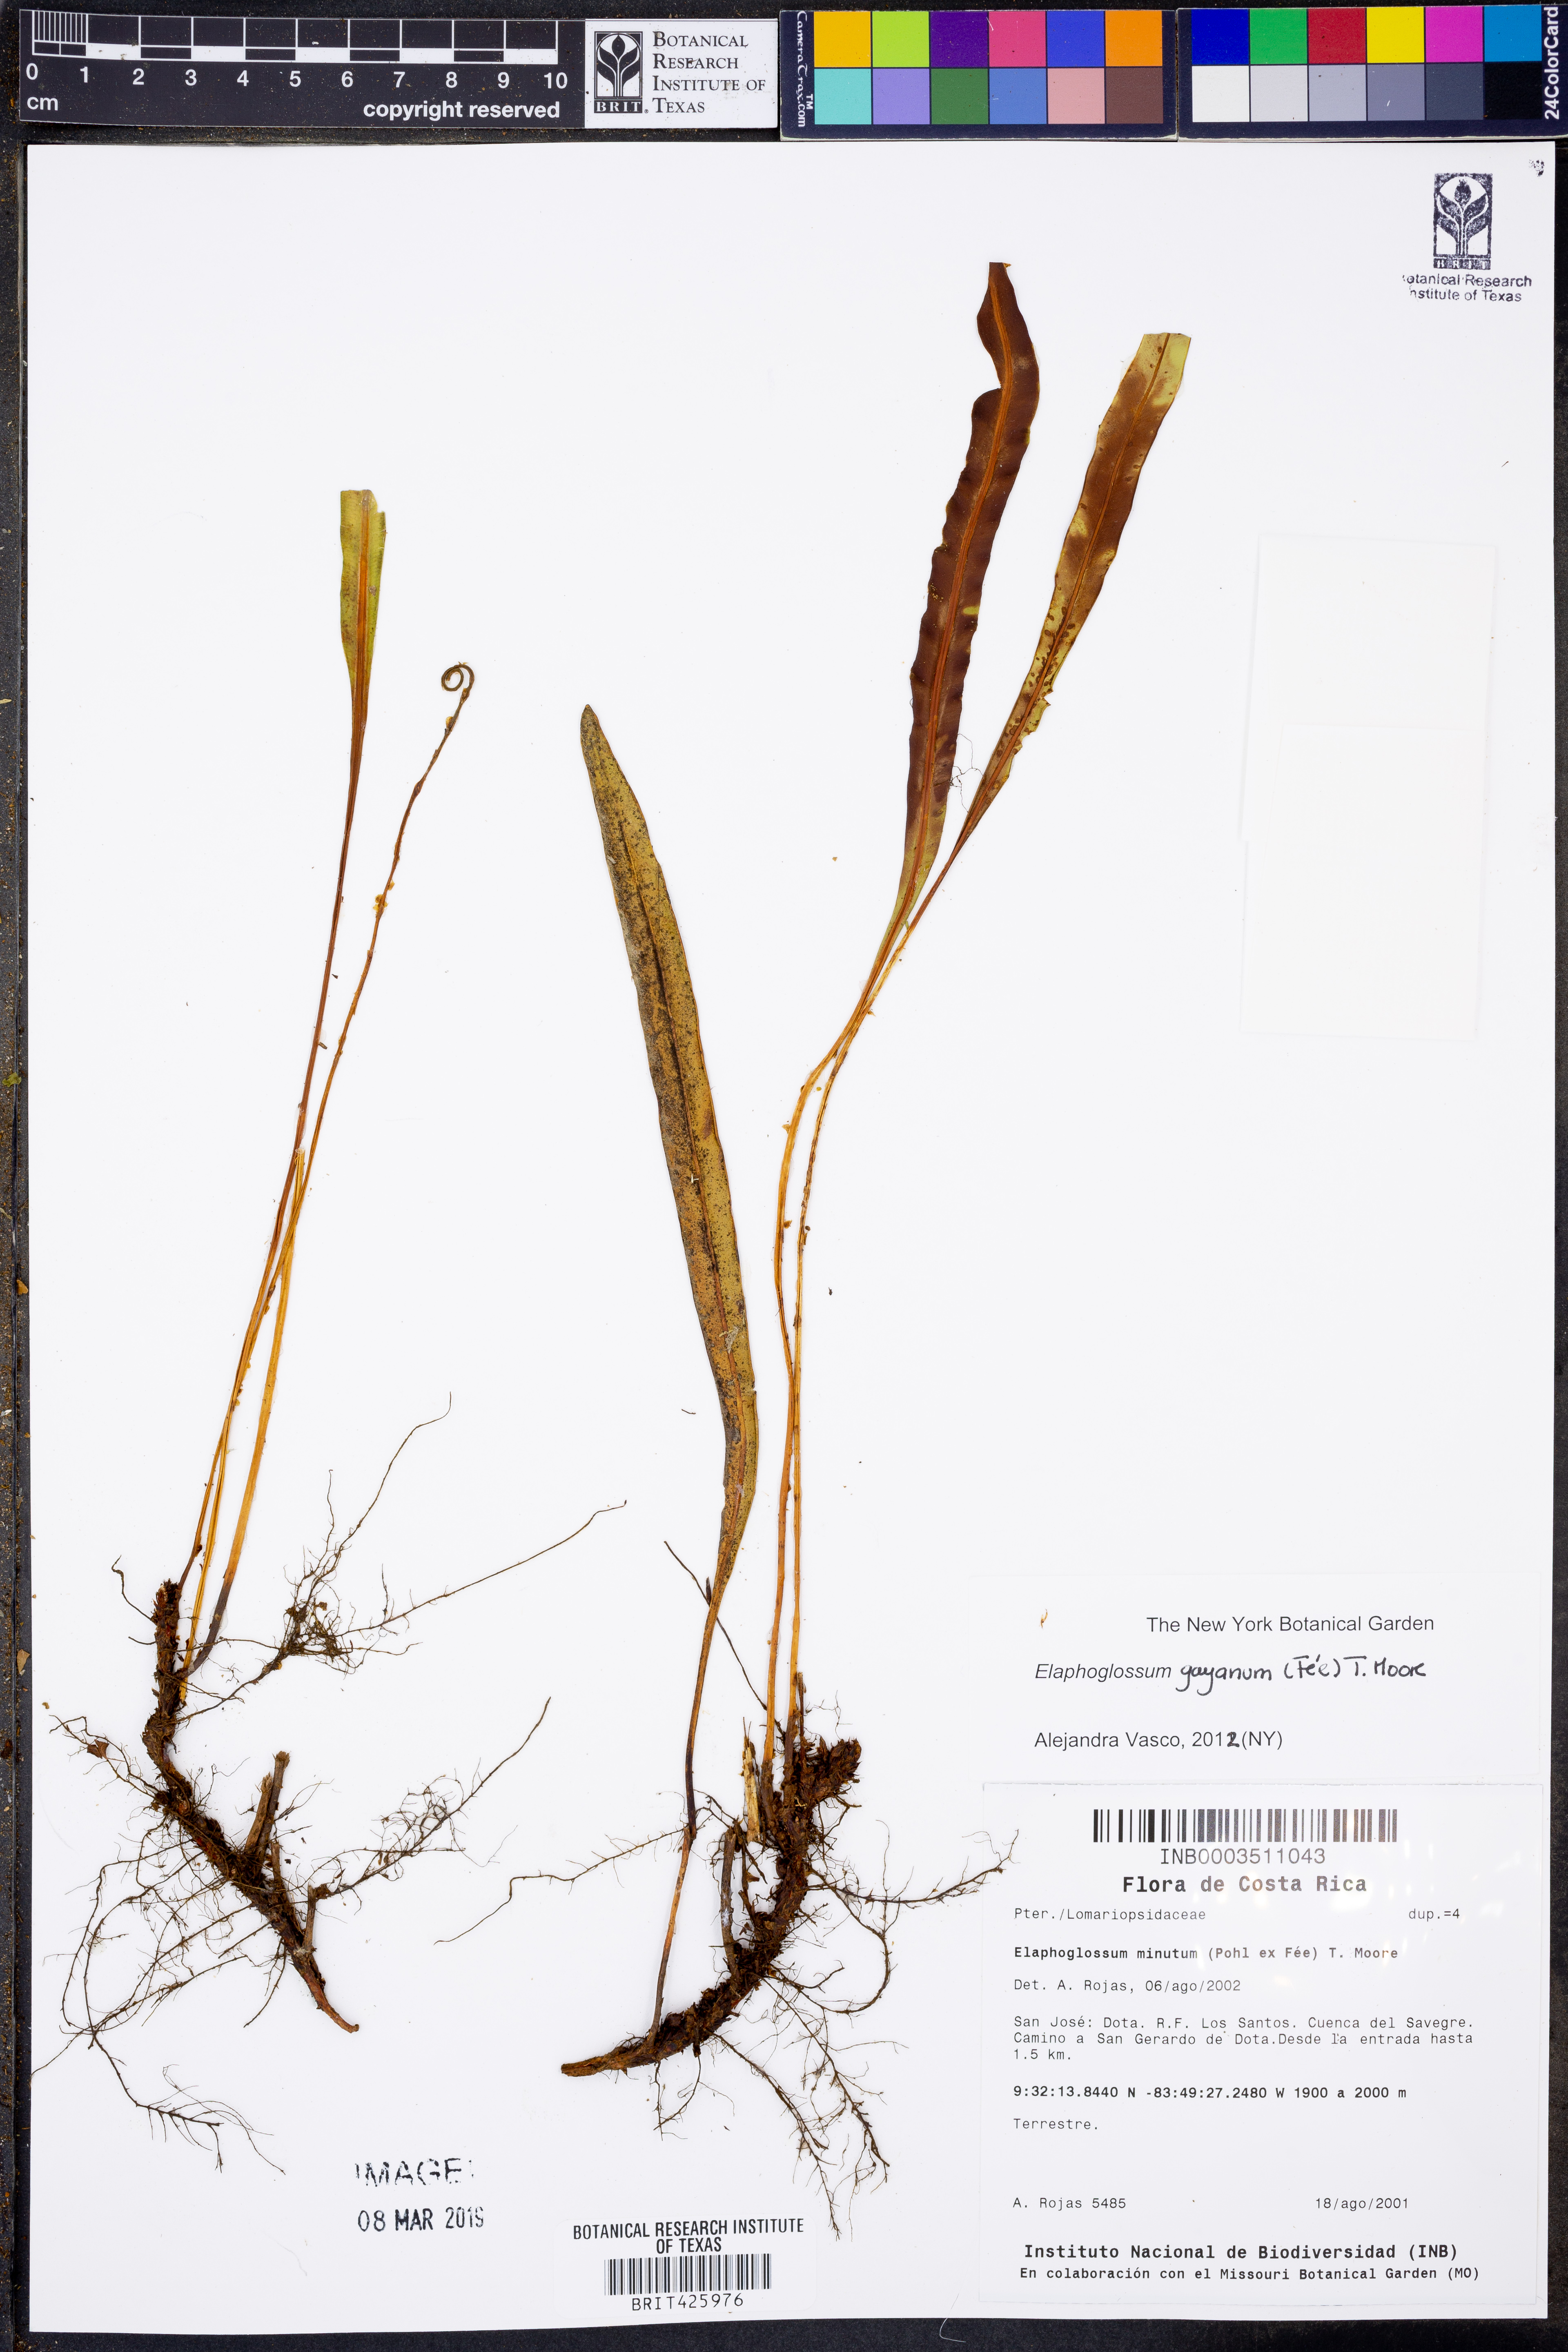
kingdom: Plantae
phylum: Tracheophyta
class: Polypodiopsida
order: Polypodiales
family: Dryopteridaceae
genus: Elaphoglossum
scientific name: Elaphoglossum gayanum
